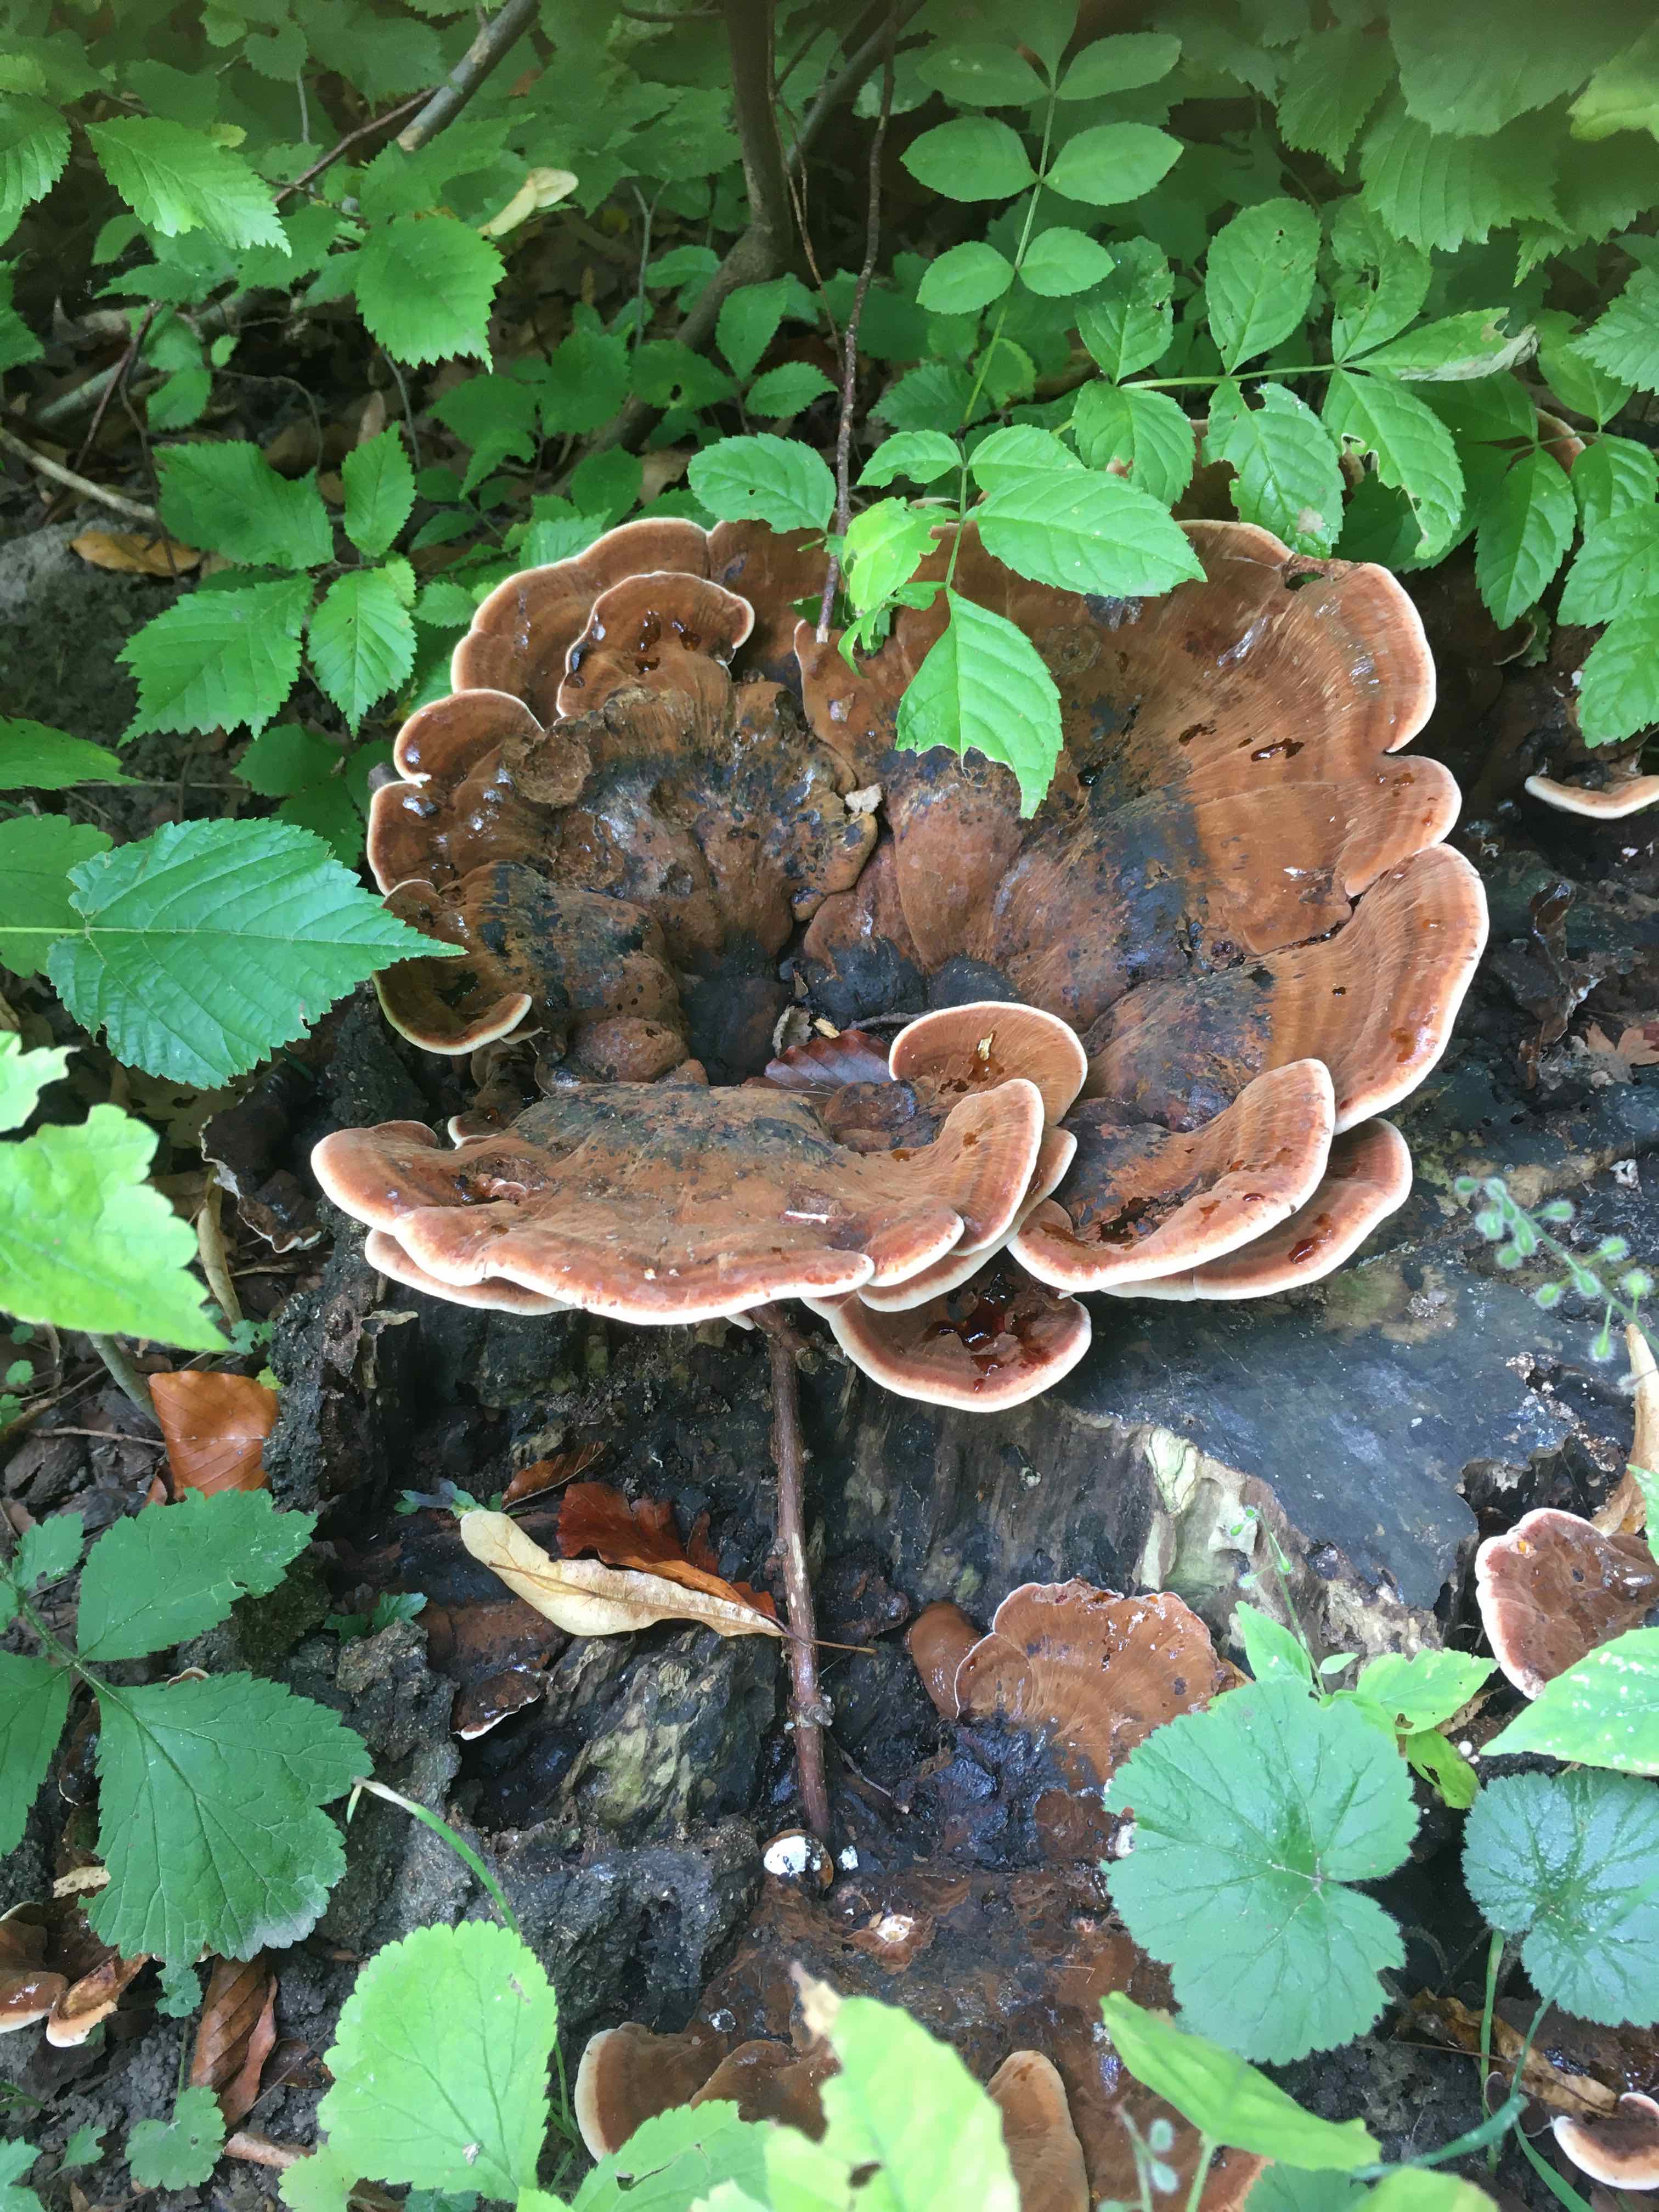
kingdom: Fungi
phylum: Basidiomycota
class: Agaricomycetes
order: Polyporales
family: Ischnodermataceae
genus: Ischnoderma
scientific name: Ischnoderma resinosum
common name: løv-tjæreporesvamp
